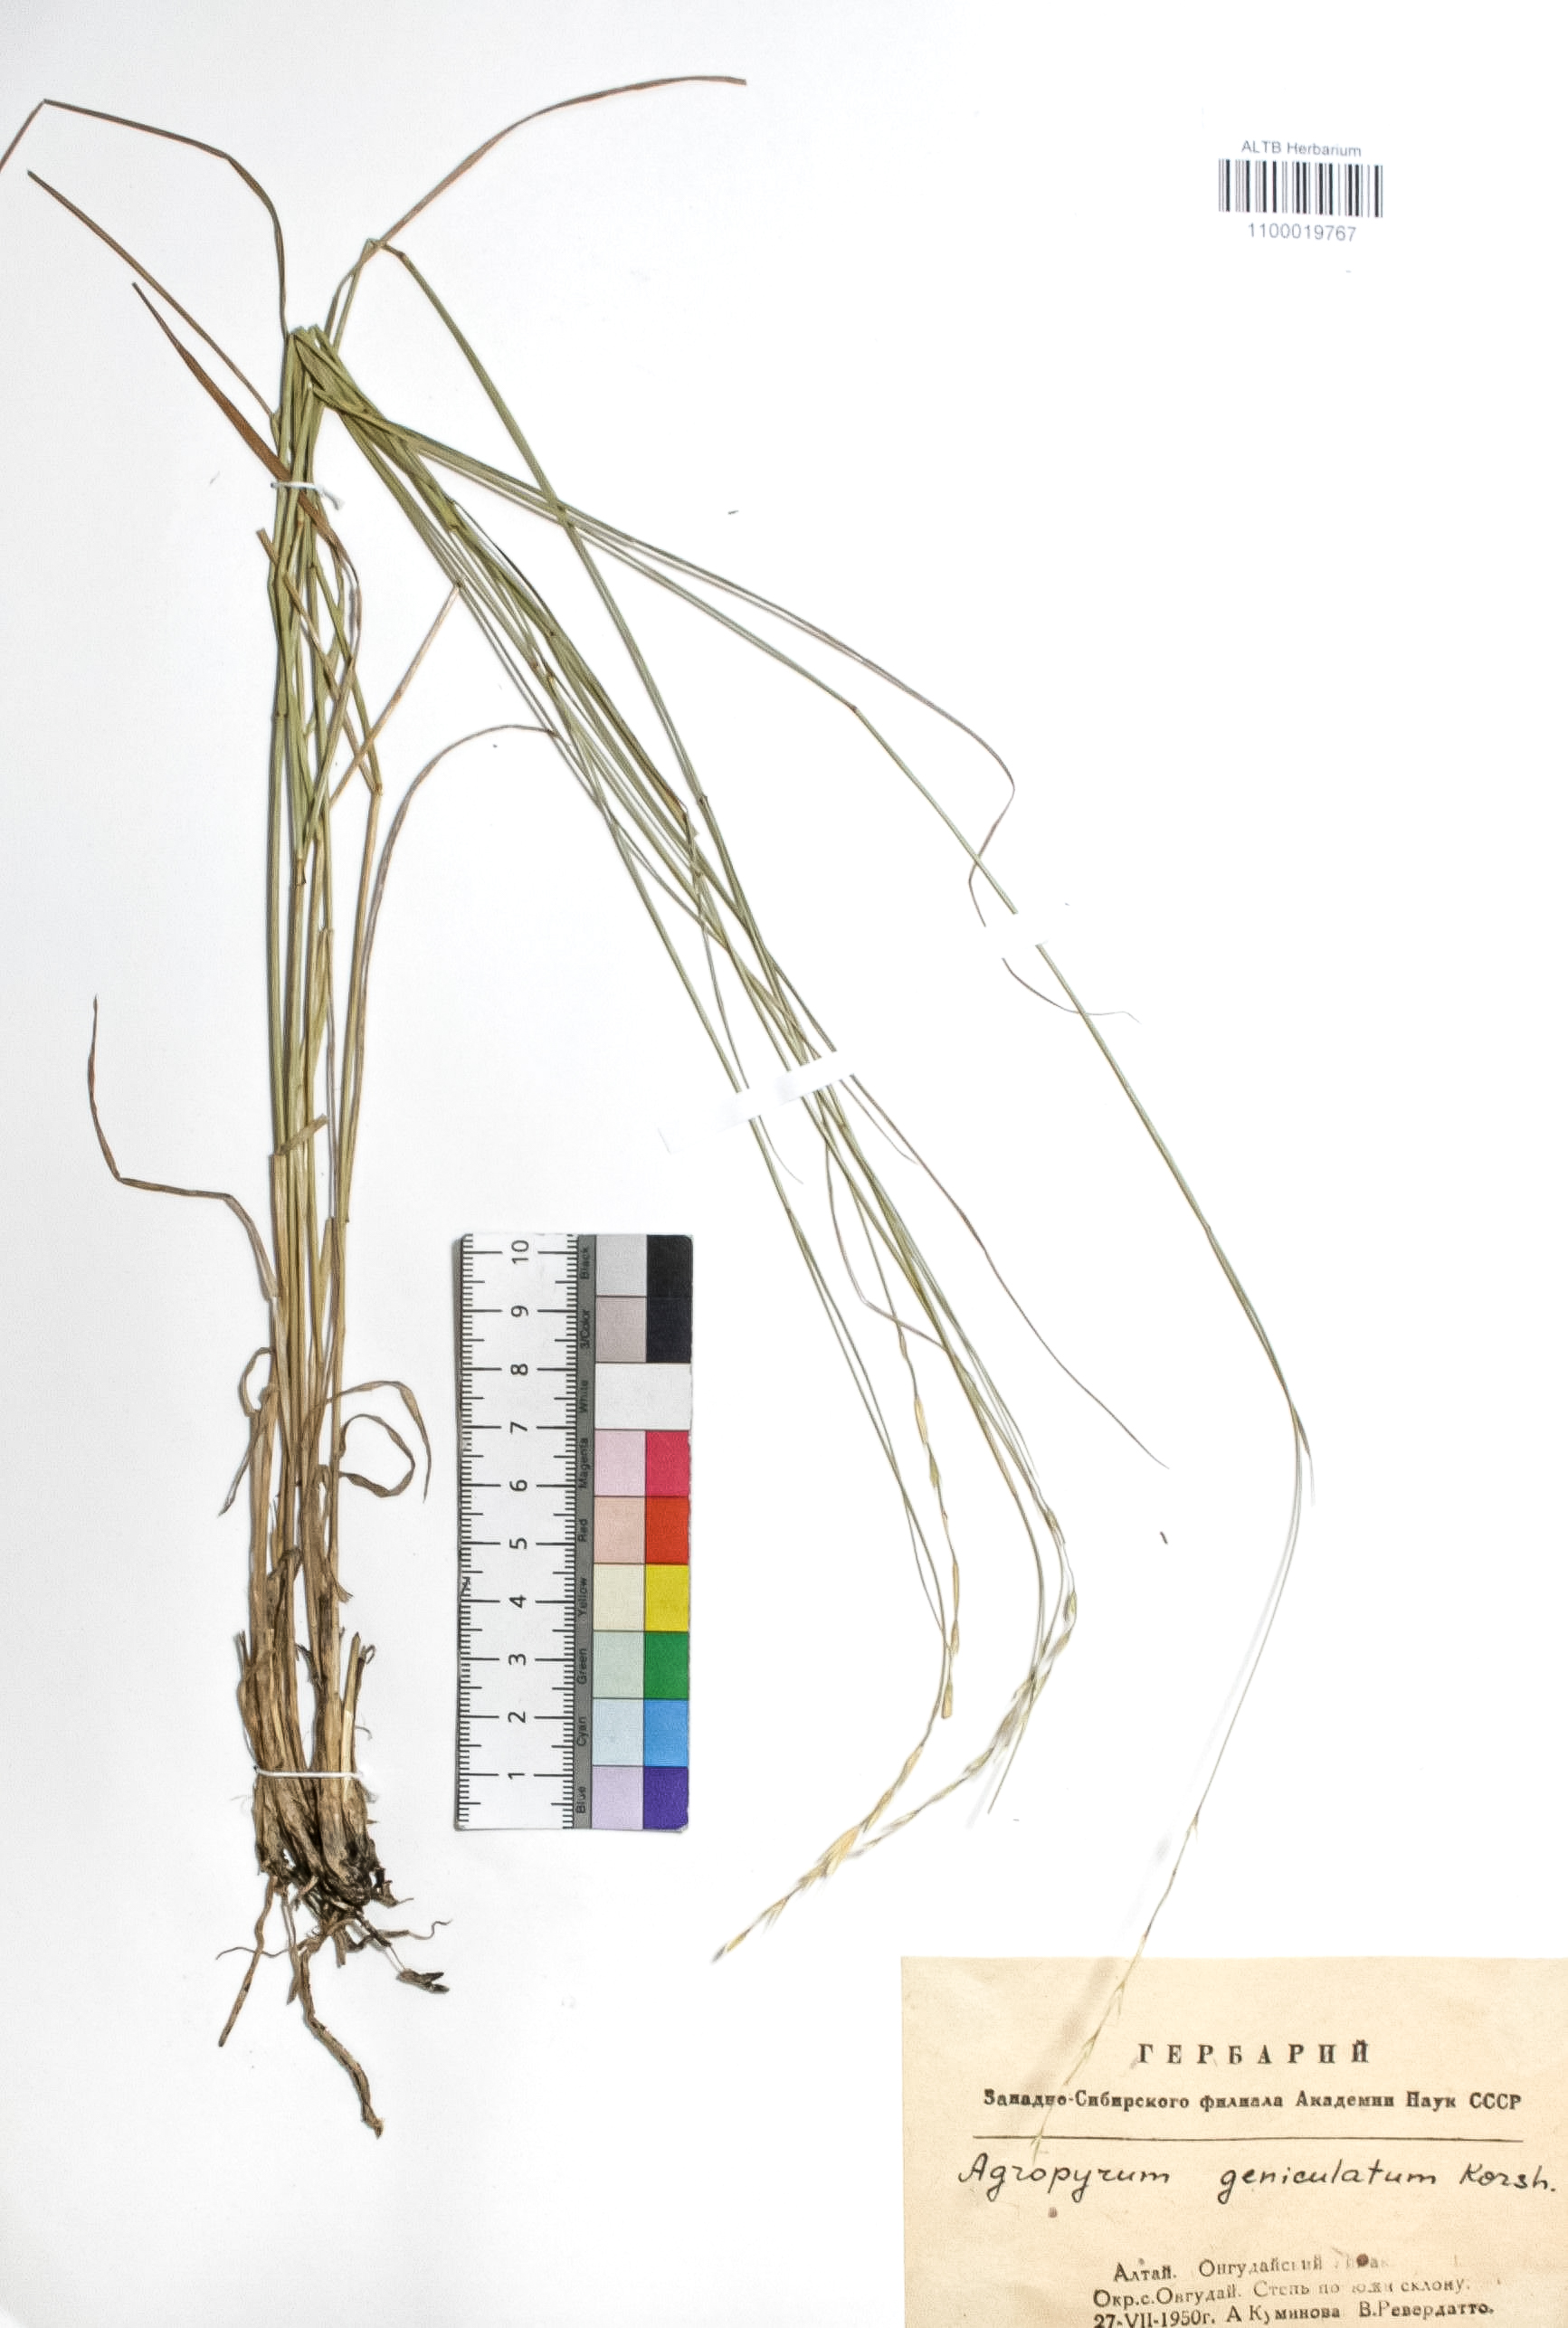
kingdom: Plantae
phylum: Tracheophyta
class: Liliopsida
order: Poales
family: Poaceae
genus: Pseudoroegneria
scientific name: Pseudoroegneria geniculata
